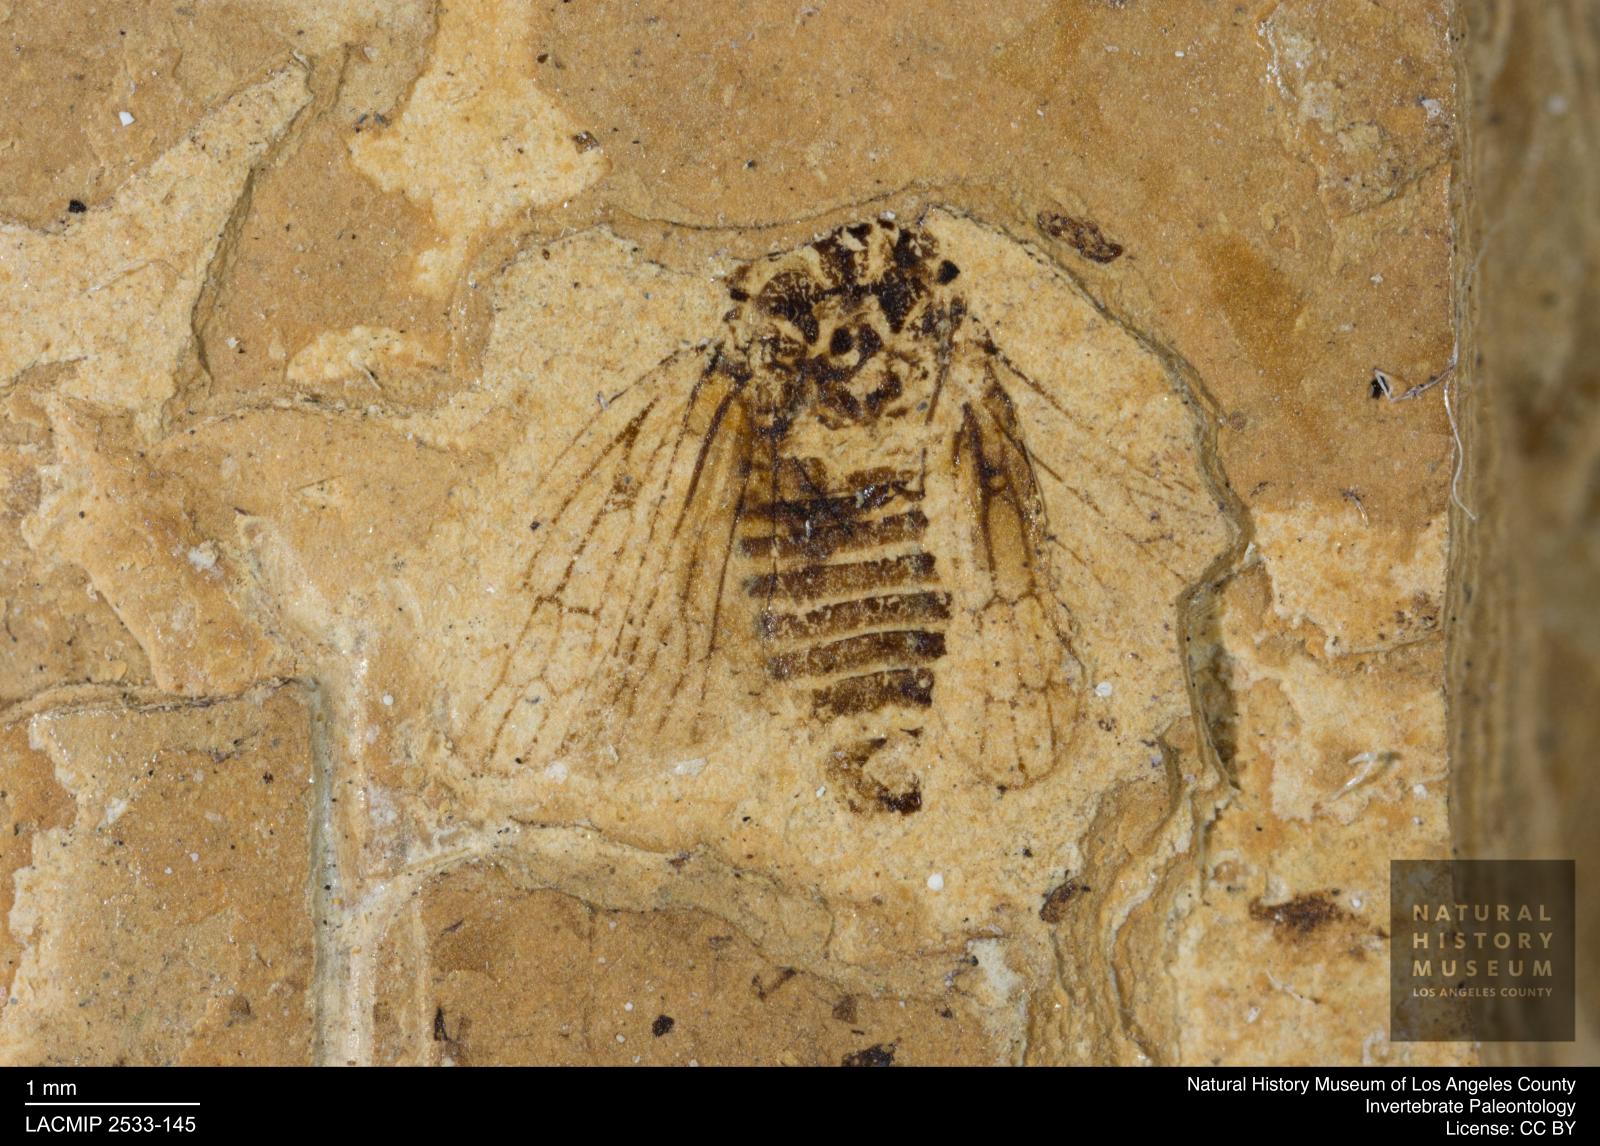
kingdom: Animalia
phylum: Arthropoda
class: Insecta
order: Hemiptera
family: Cicadellidae
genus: Iassus
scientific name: Iassus sepultus
